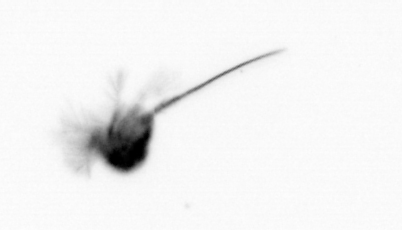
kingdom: Animalia
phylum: Arthropoda
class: Copepoda
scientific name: Copepoda
